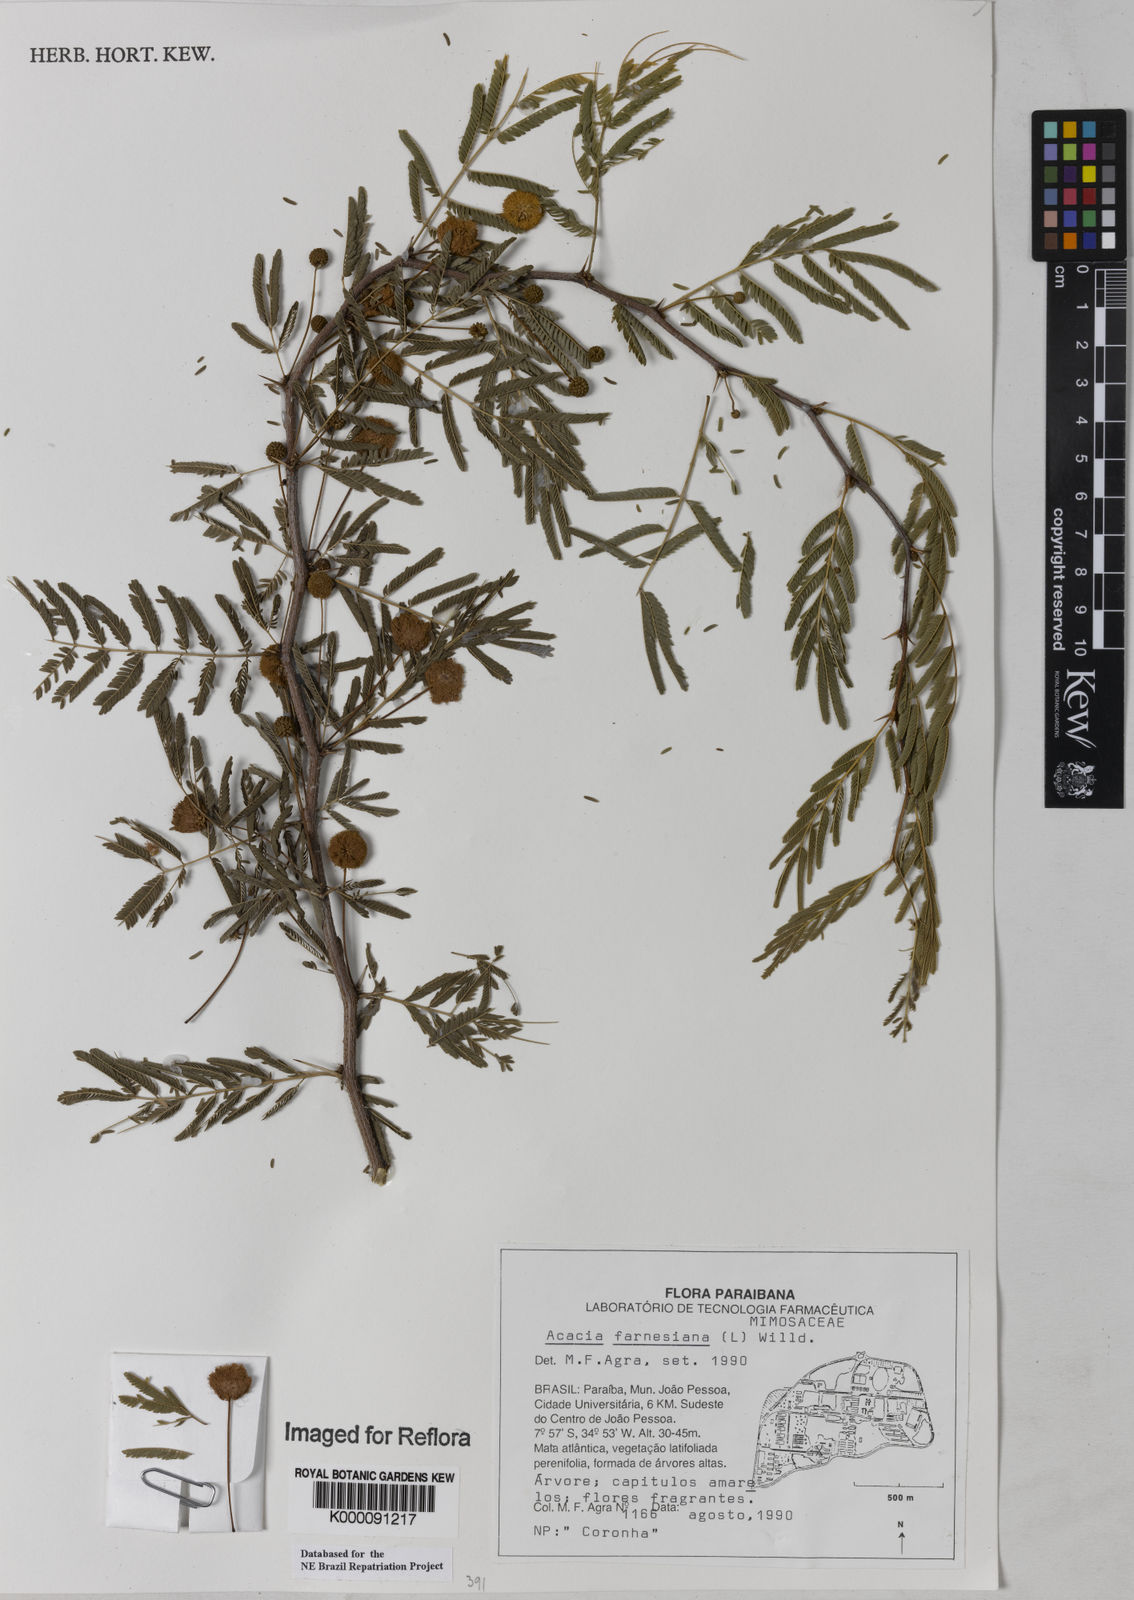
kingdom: Plantae
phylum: Tracheophyta
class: Magnoliopsida
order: Fabales
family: Fabaceae
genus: Vachellia
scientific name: Vachellia farnesiana
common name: Sweet acacia
